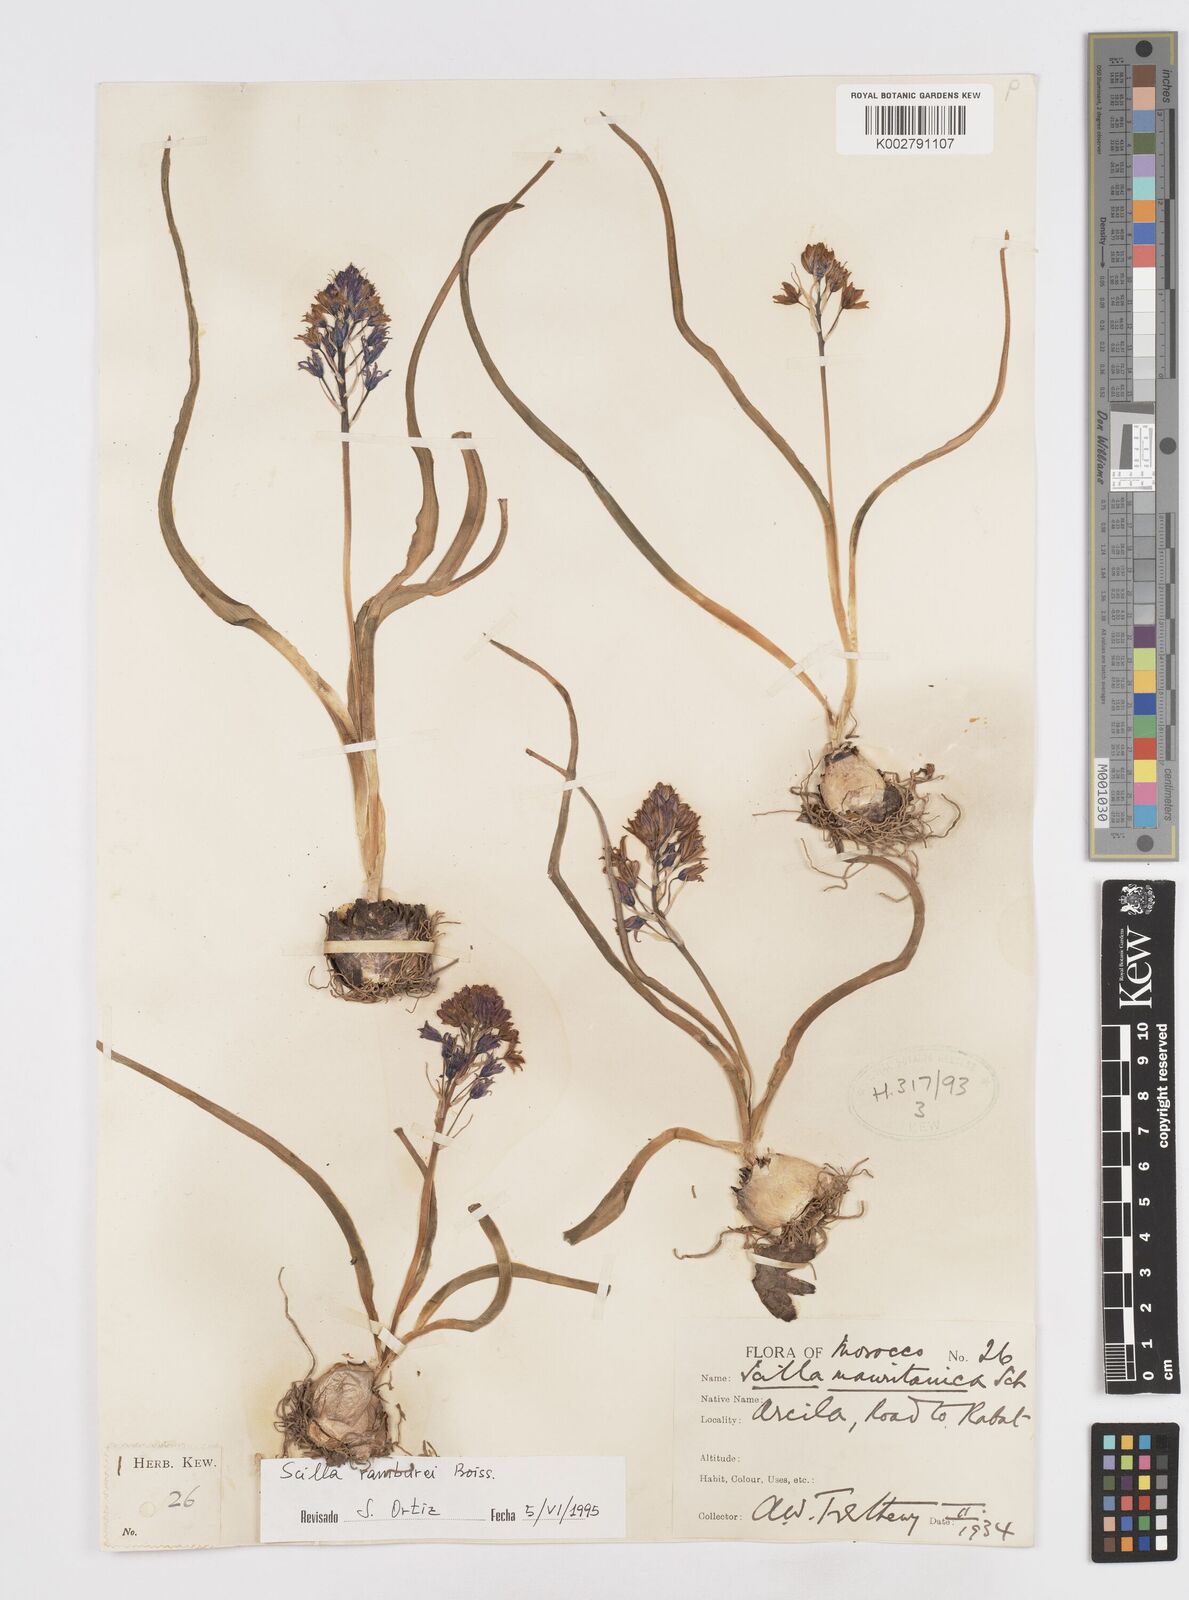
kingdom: Plantae
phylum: Tracheophyta
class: Liliopsida
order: Asparagales
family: Asparagaceae
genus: Scilla
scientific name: Scilla
